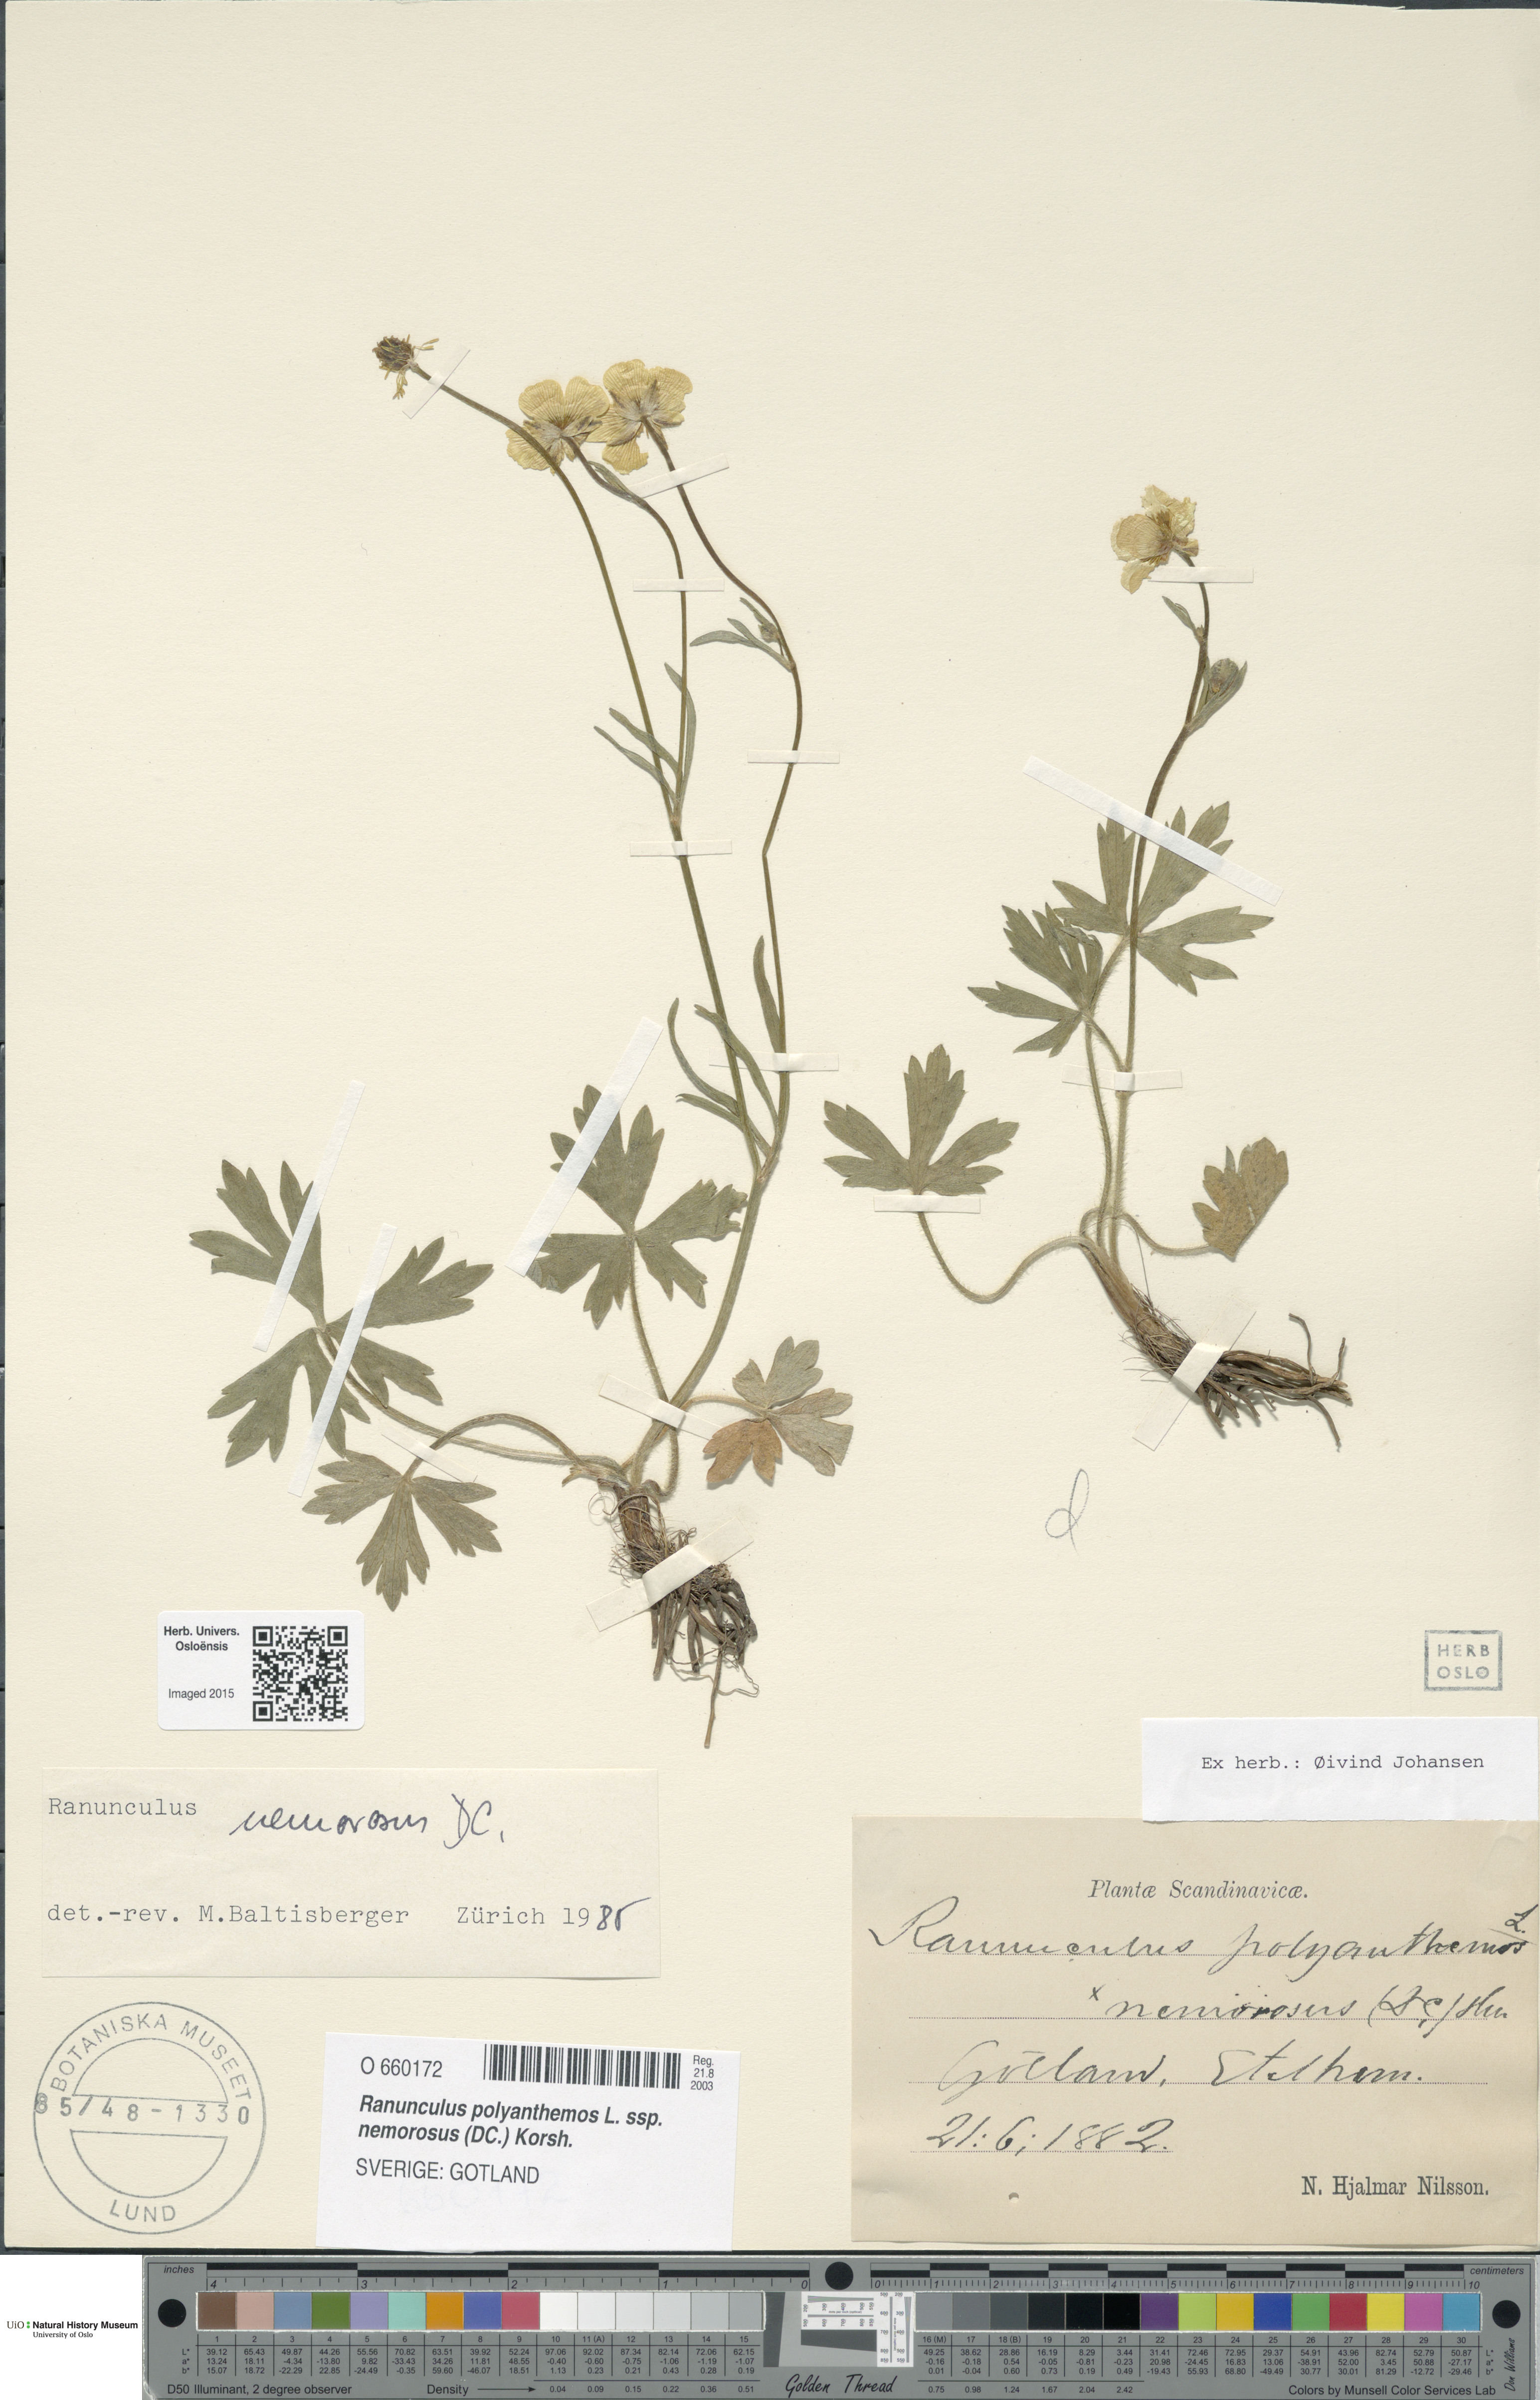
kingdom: Plantae
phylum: Tracheophyta
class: Magnoliopsida
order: Ranunculales
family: Ranunculaceae
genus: Ranunculus
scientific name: Ranunculus polyanthemos
